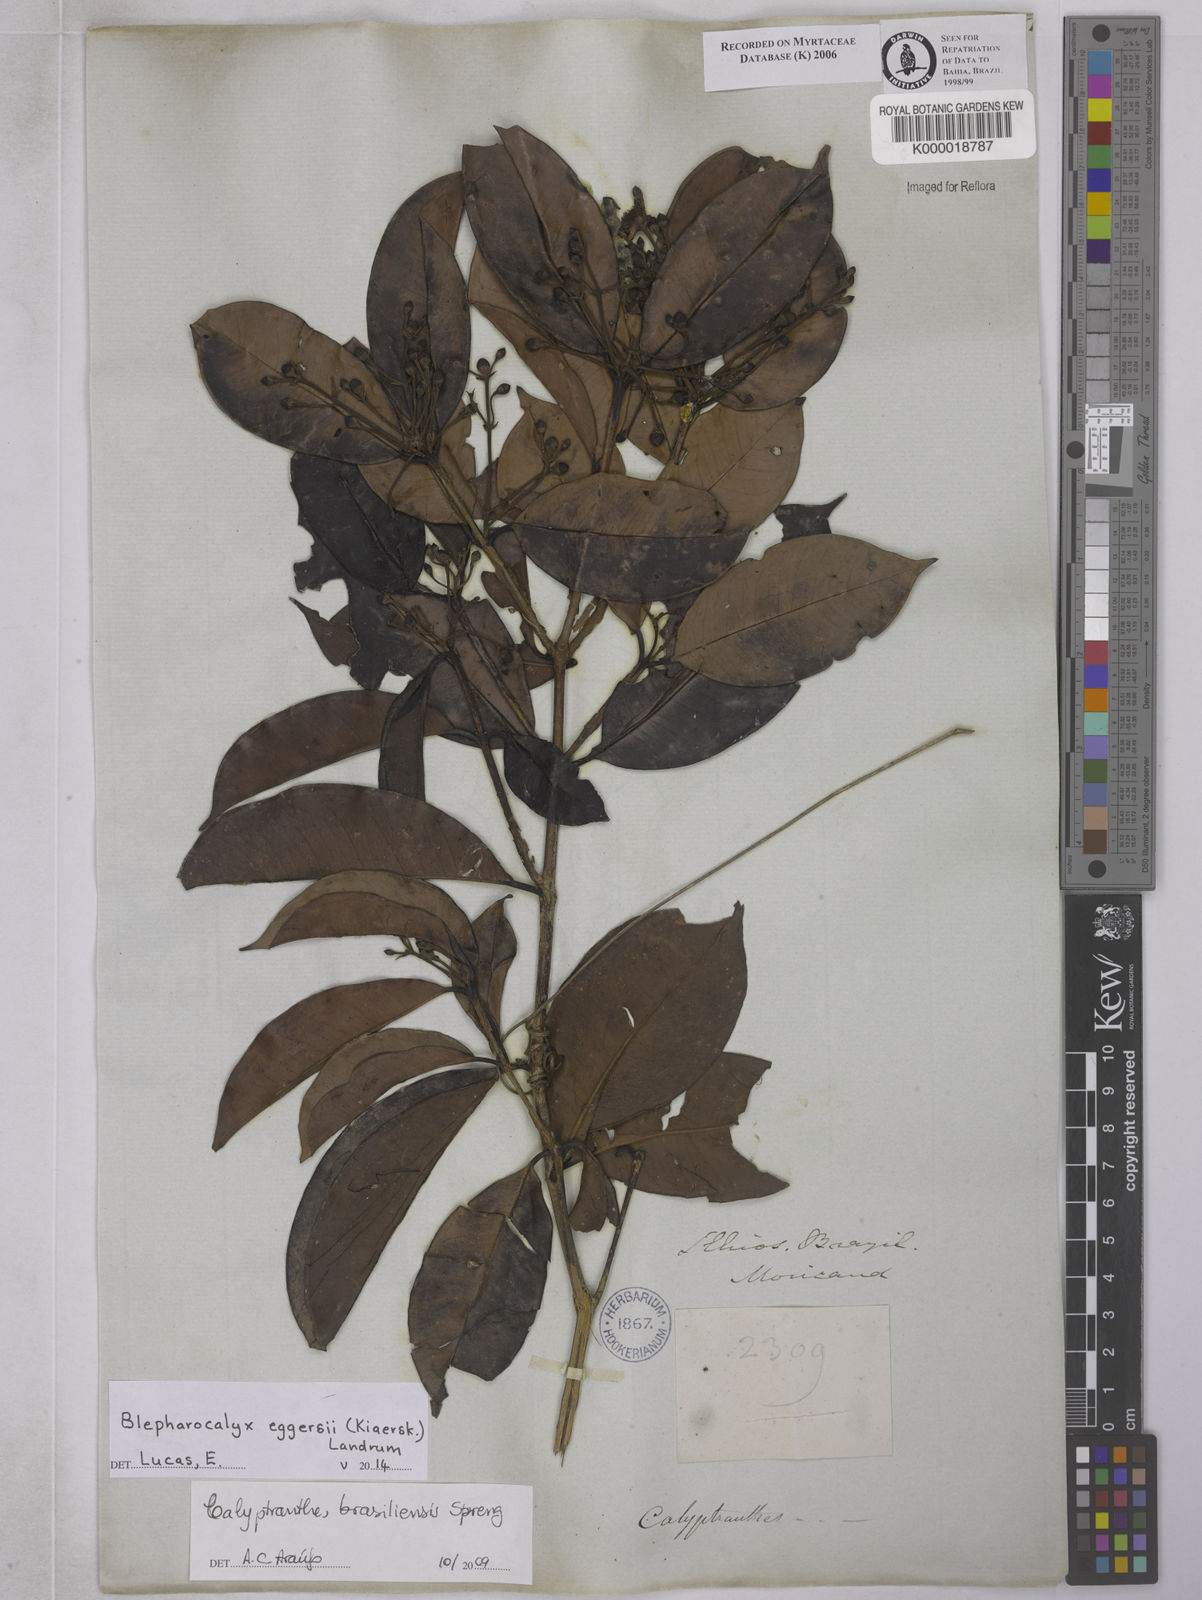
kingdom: Plantae
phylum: Tracheophyta
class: Magnoliopsida
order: Myrtales
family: Myrtaceae
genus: Calyptranthes
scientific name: Calyptranthes
